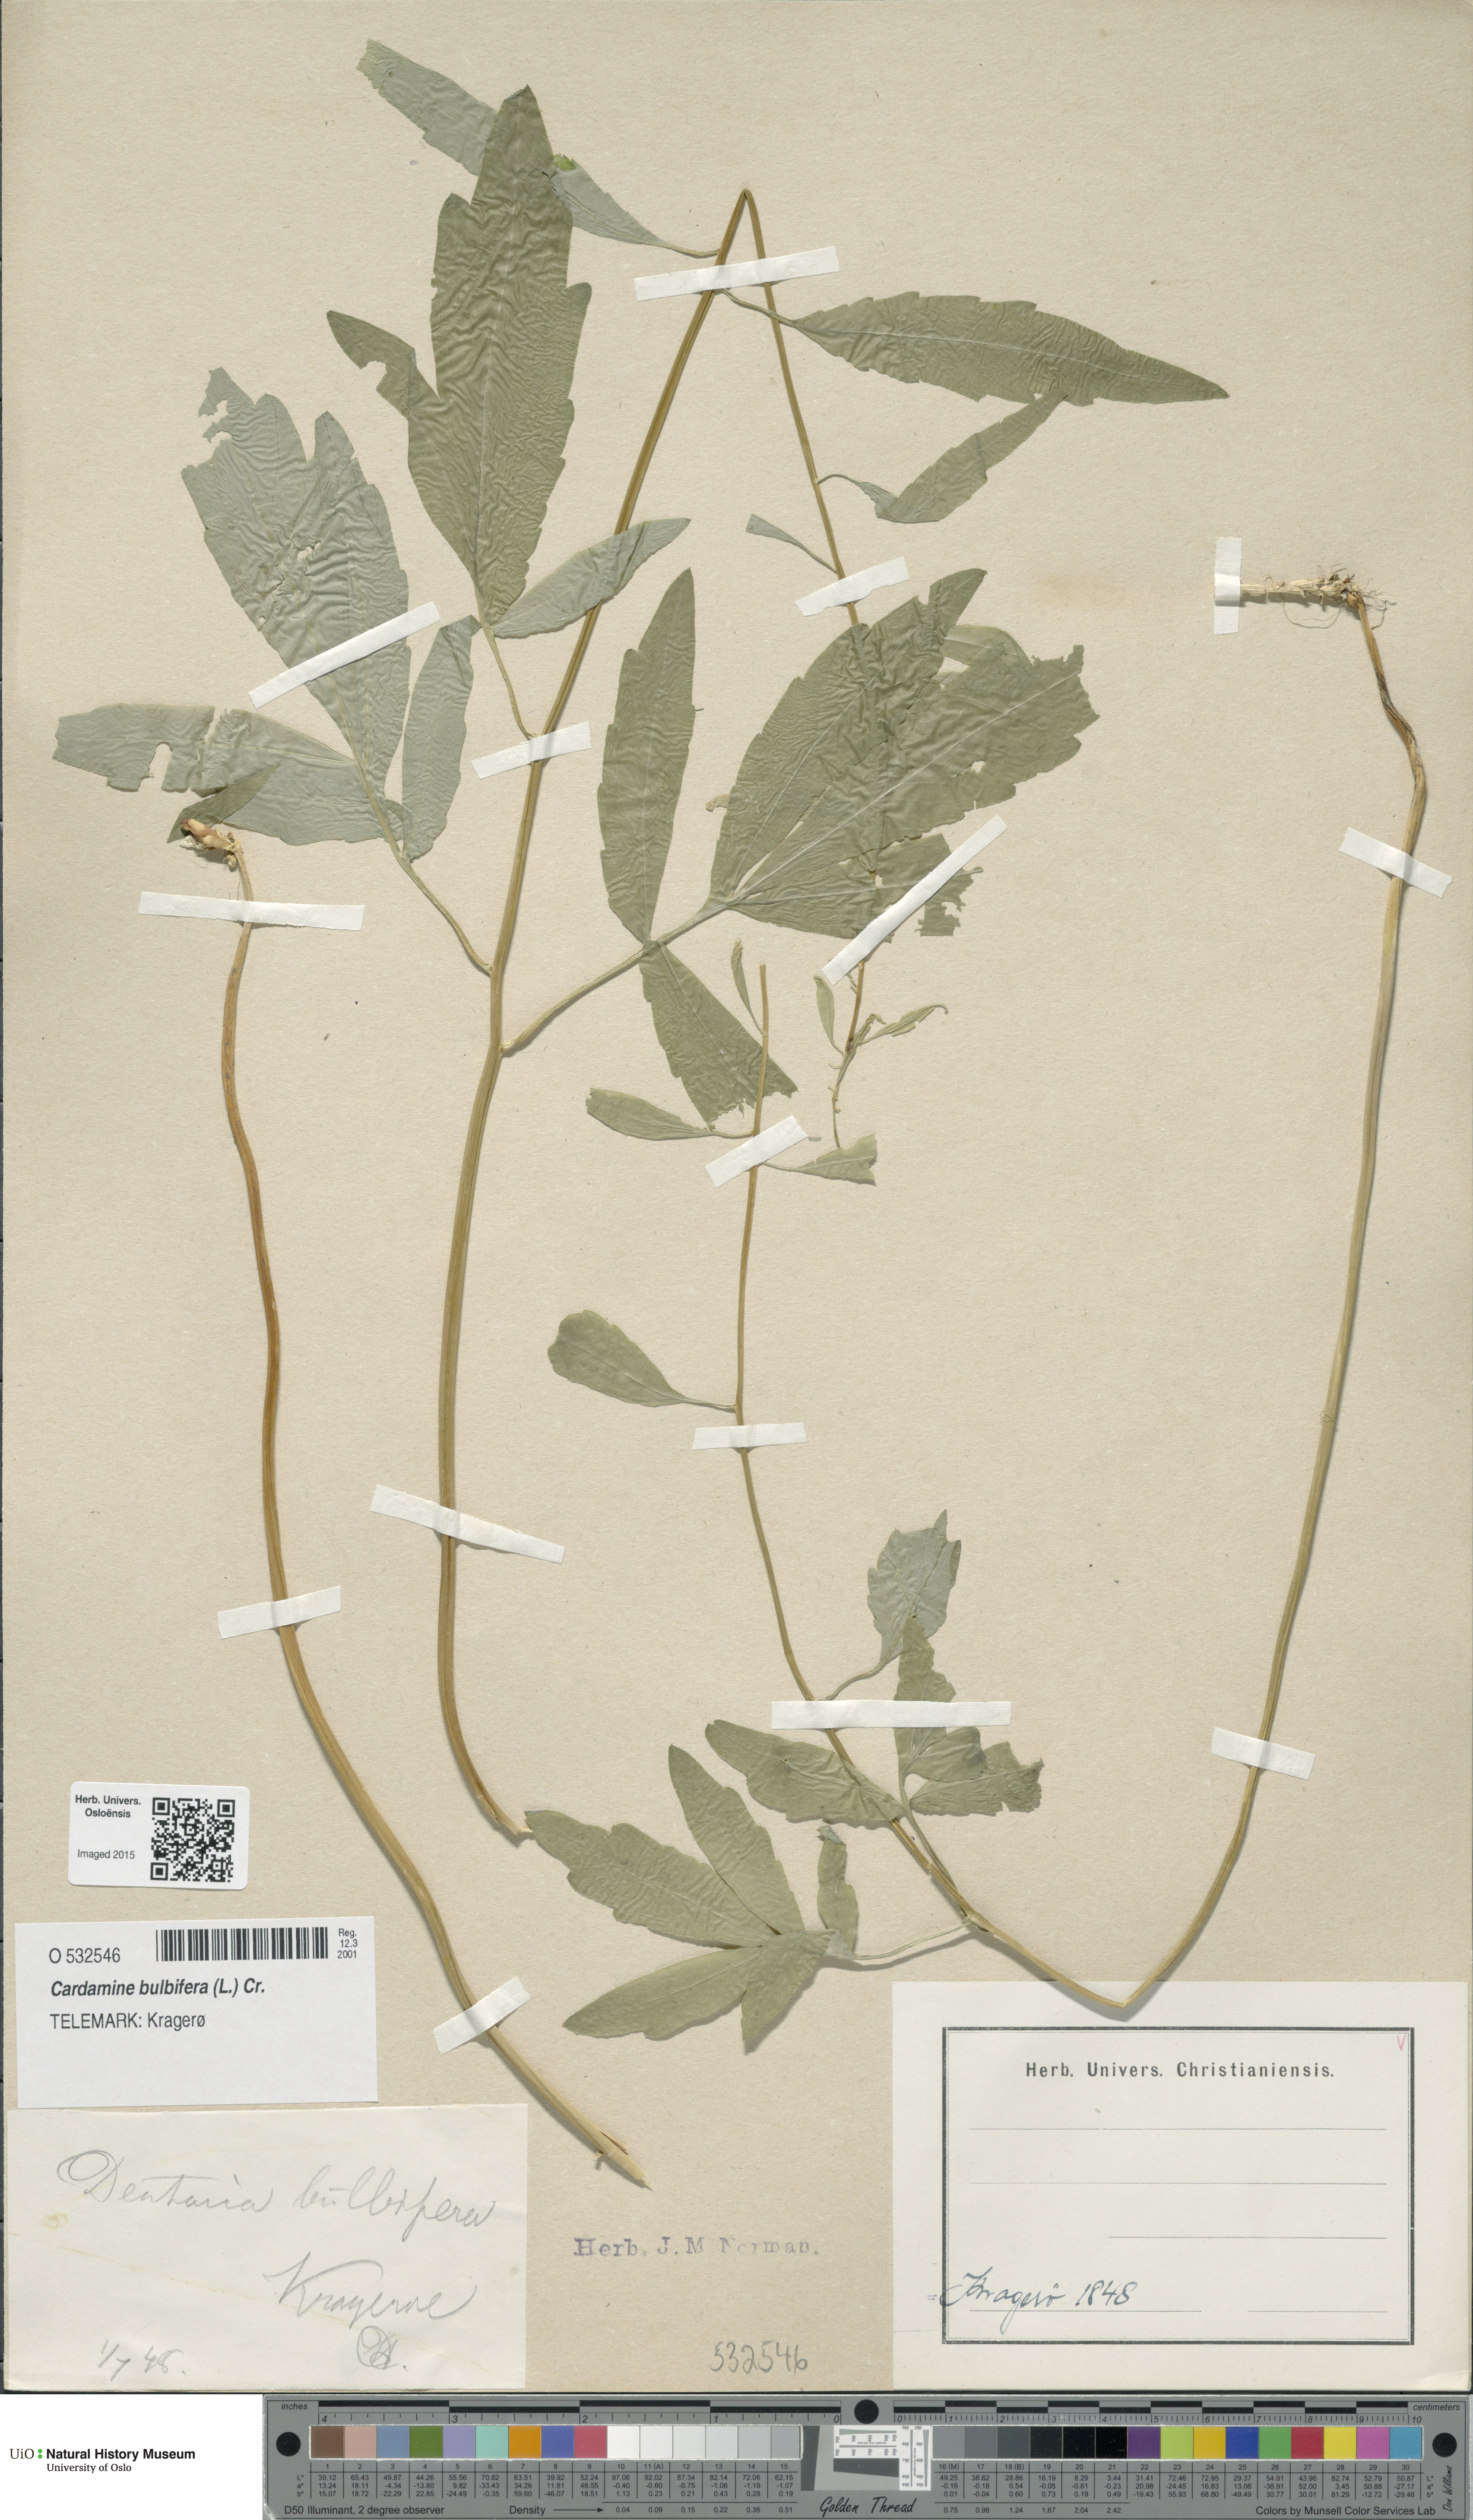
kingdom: Plantae
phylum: Tracheophyta
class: Magnoliopsida
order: Brassicales
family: Brassicaceae
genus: Cardamine
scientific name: Cardamine bulbifera
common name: Coralroot bittercress
